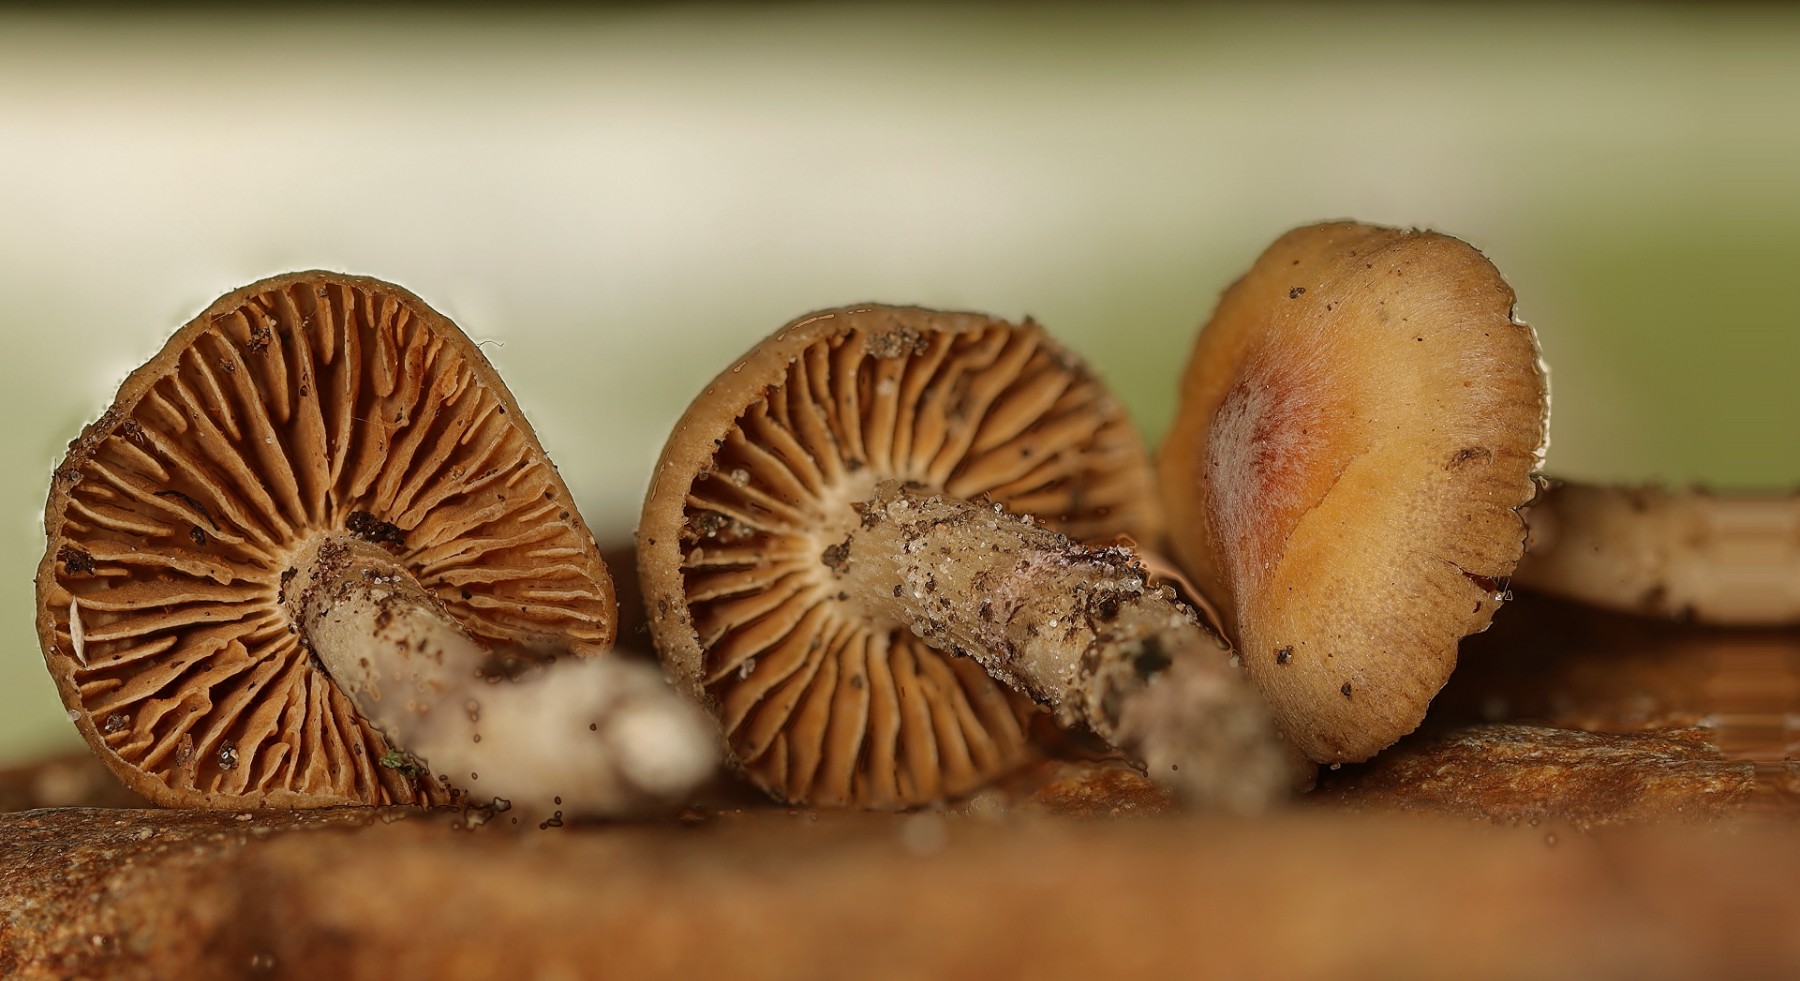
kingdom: Fungi
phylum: Basidiomycota
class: Agaricomycetes
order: Agaricales
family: Cortinariaceae
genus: Cortinarius
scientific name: Cortinarius vicinus
